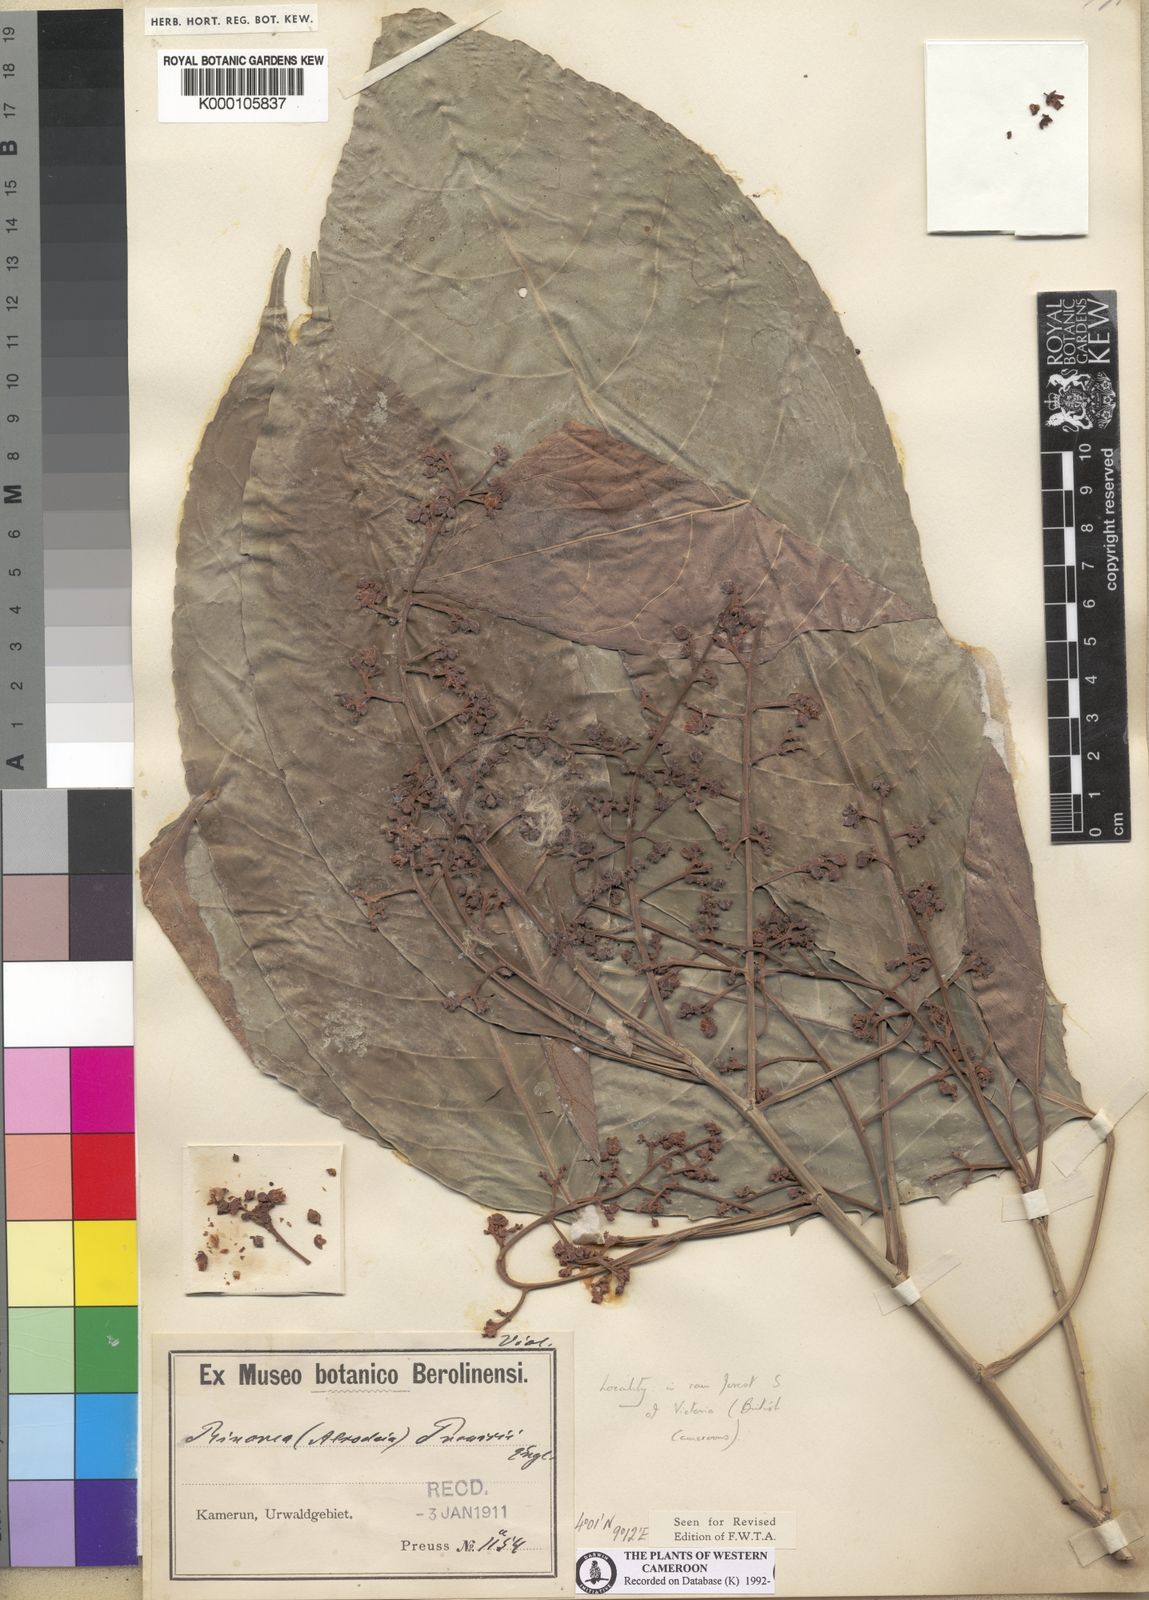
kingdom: Plantae
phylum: Tracheophyta
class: Magnoliopsida
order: Malpighiales
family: Violaceae
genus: Rinorea
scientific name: Rinorea preussii
